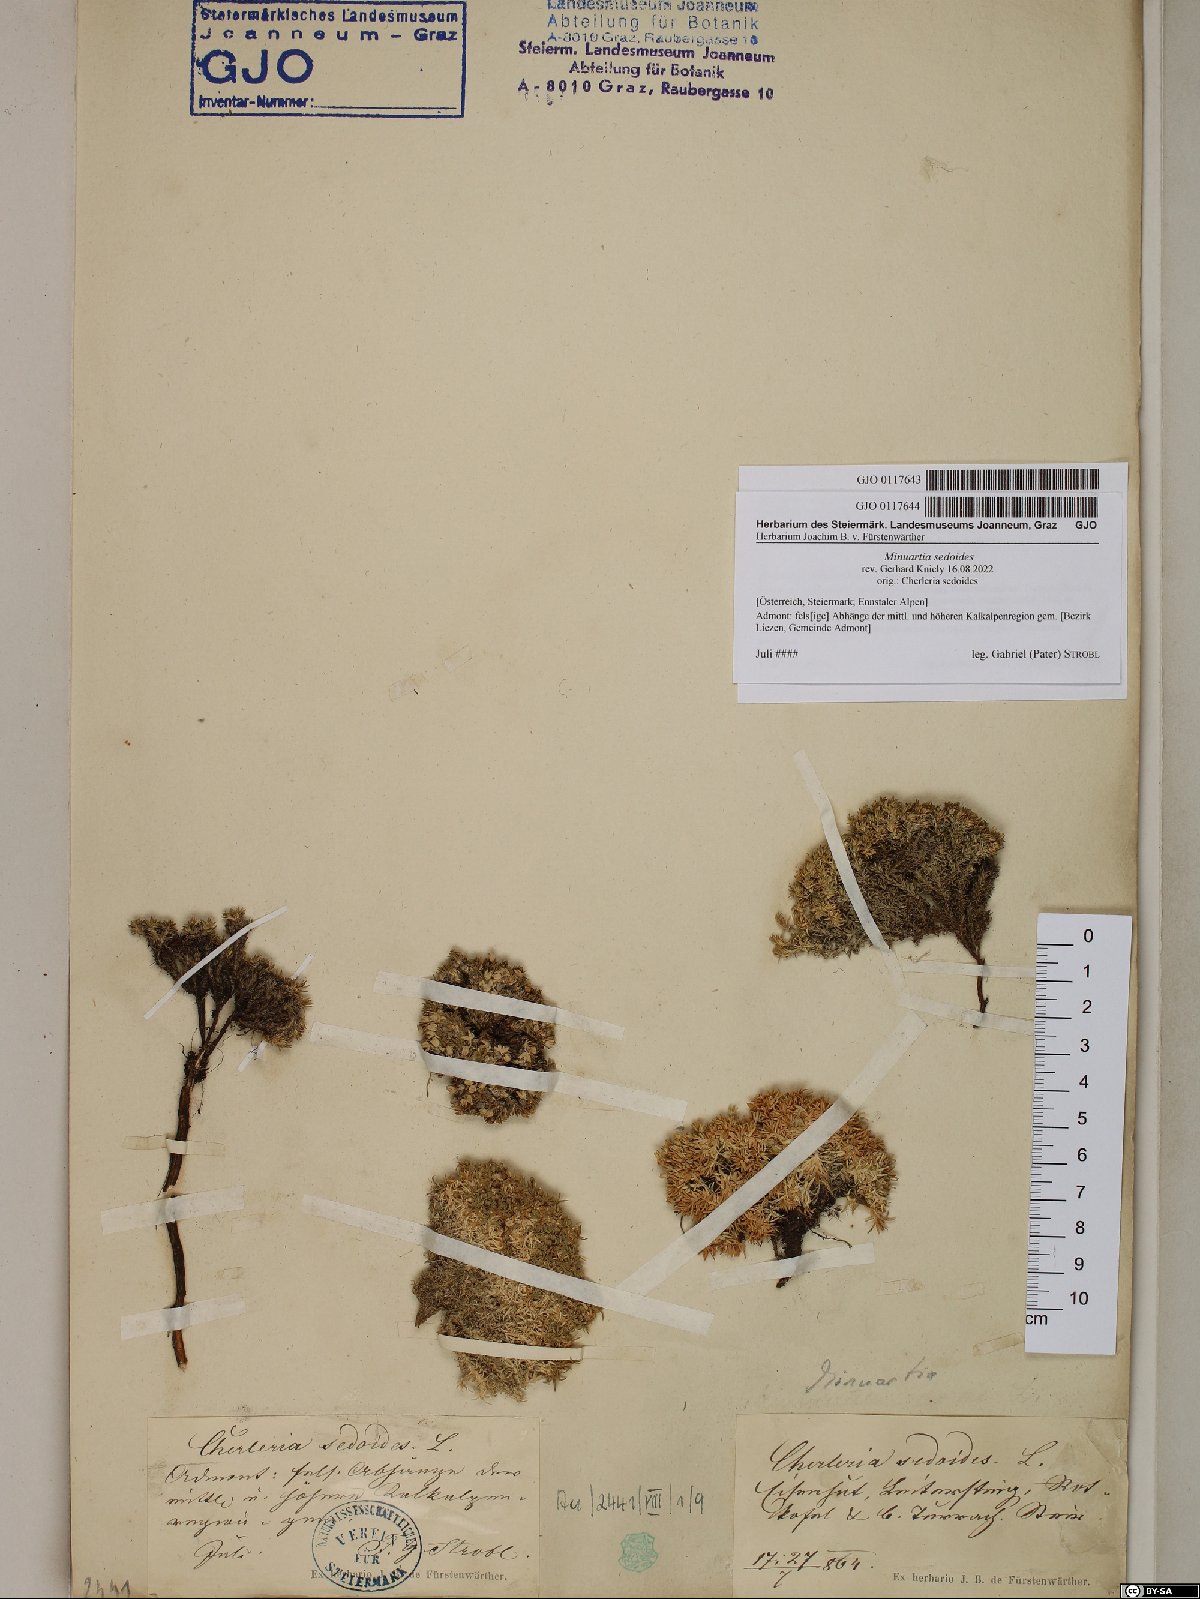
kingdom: Plantae
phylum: Tracheophyta
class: Magnoliopsida
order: Caryophyllales
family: Caryophyllaceae
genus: Cherleria
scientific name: Cherleria sedoides
